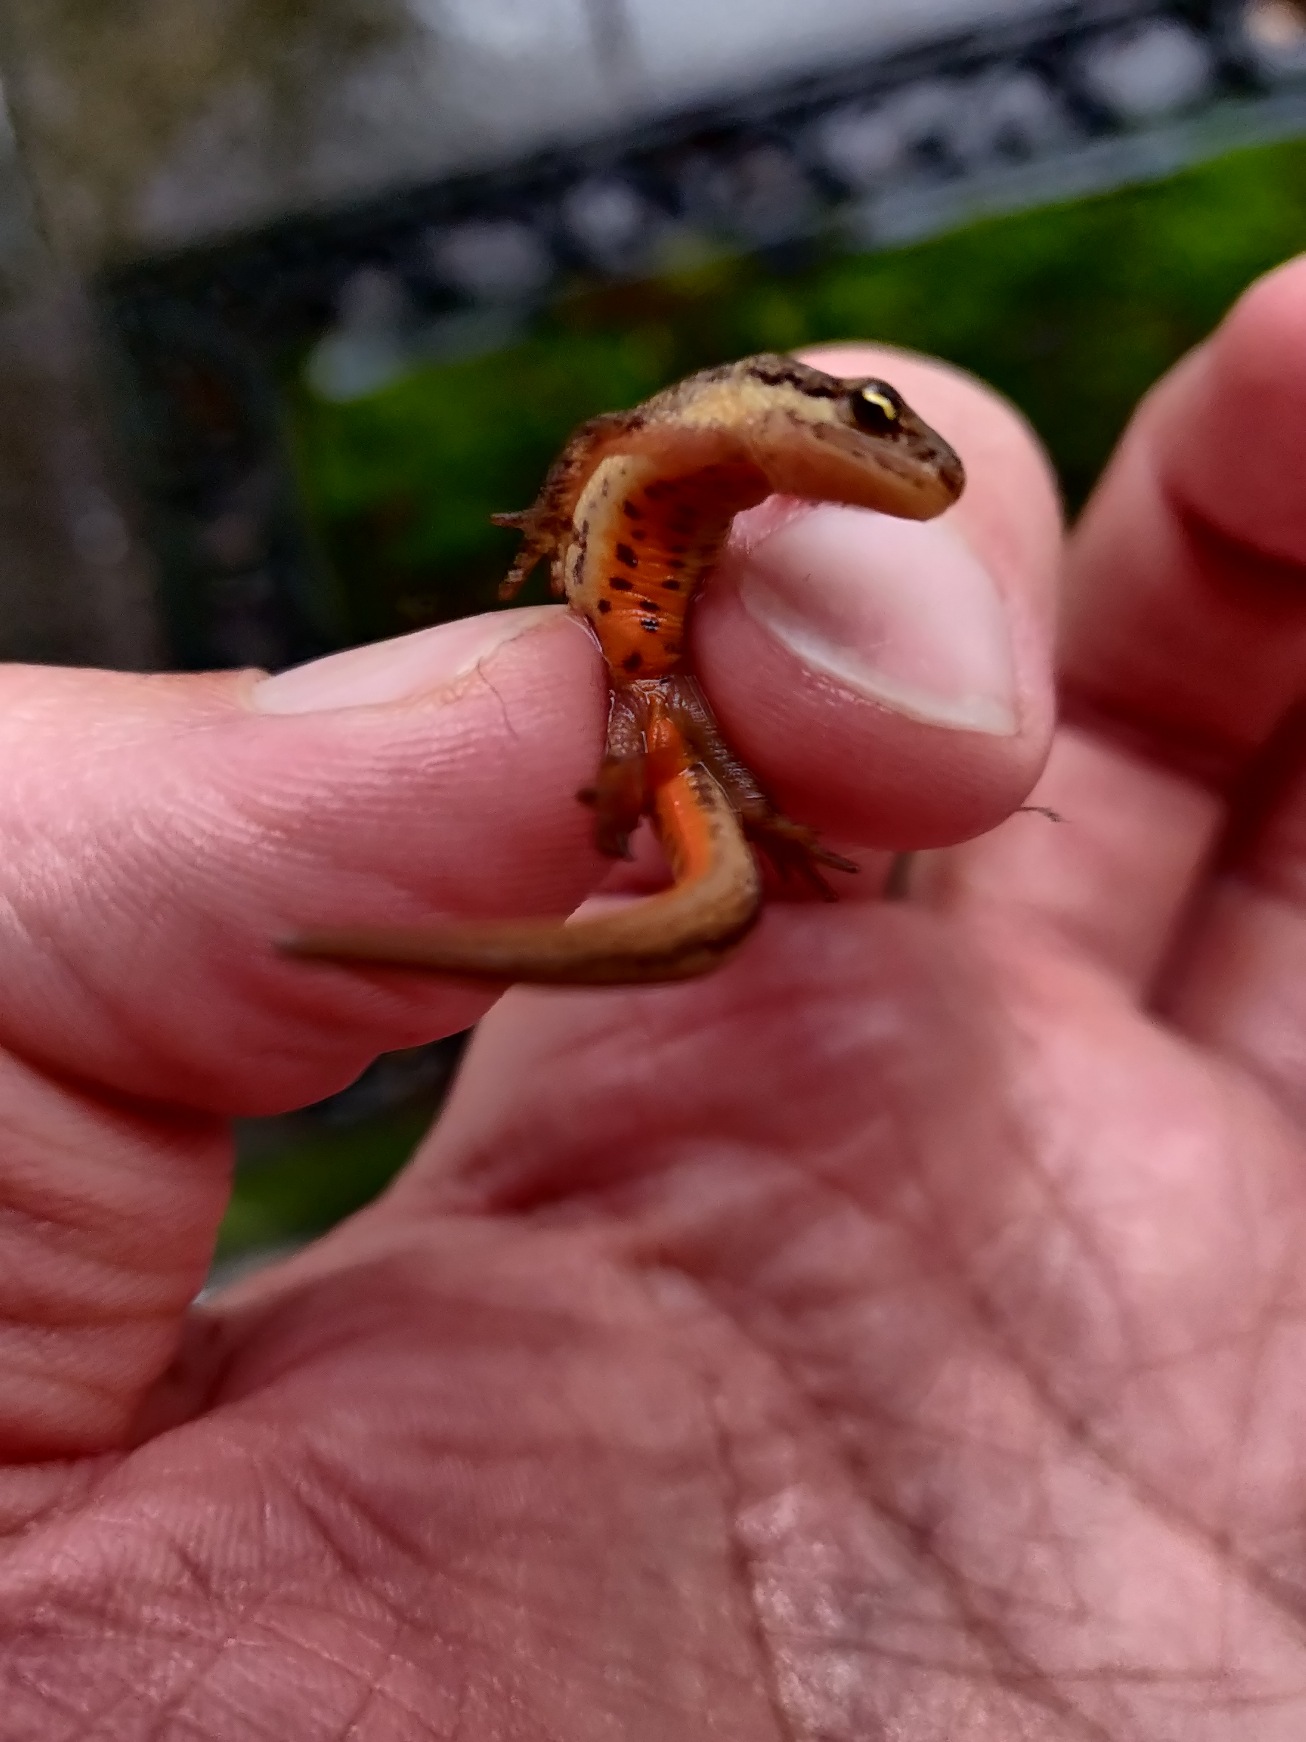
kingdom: Animalia
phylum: Chordata
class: Amphibia
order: Caudata
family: Salamandridae
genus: Lissotriton
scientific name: Lissotriton vulgaris
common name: Lille vandsalamander
